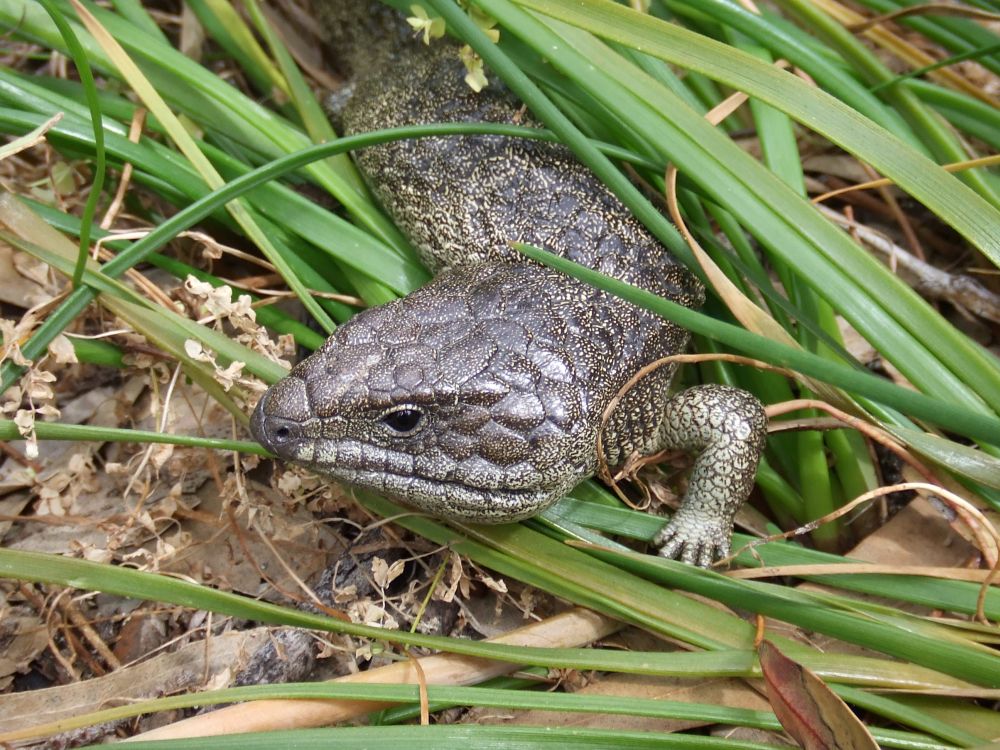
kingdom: Animalia
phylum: Chordata
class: Squamata
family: Scincidae
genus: Tiliqua
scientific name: Tiliqua rugosa
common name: Pinecone lizard
